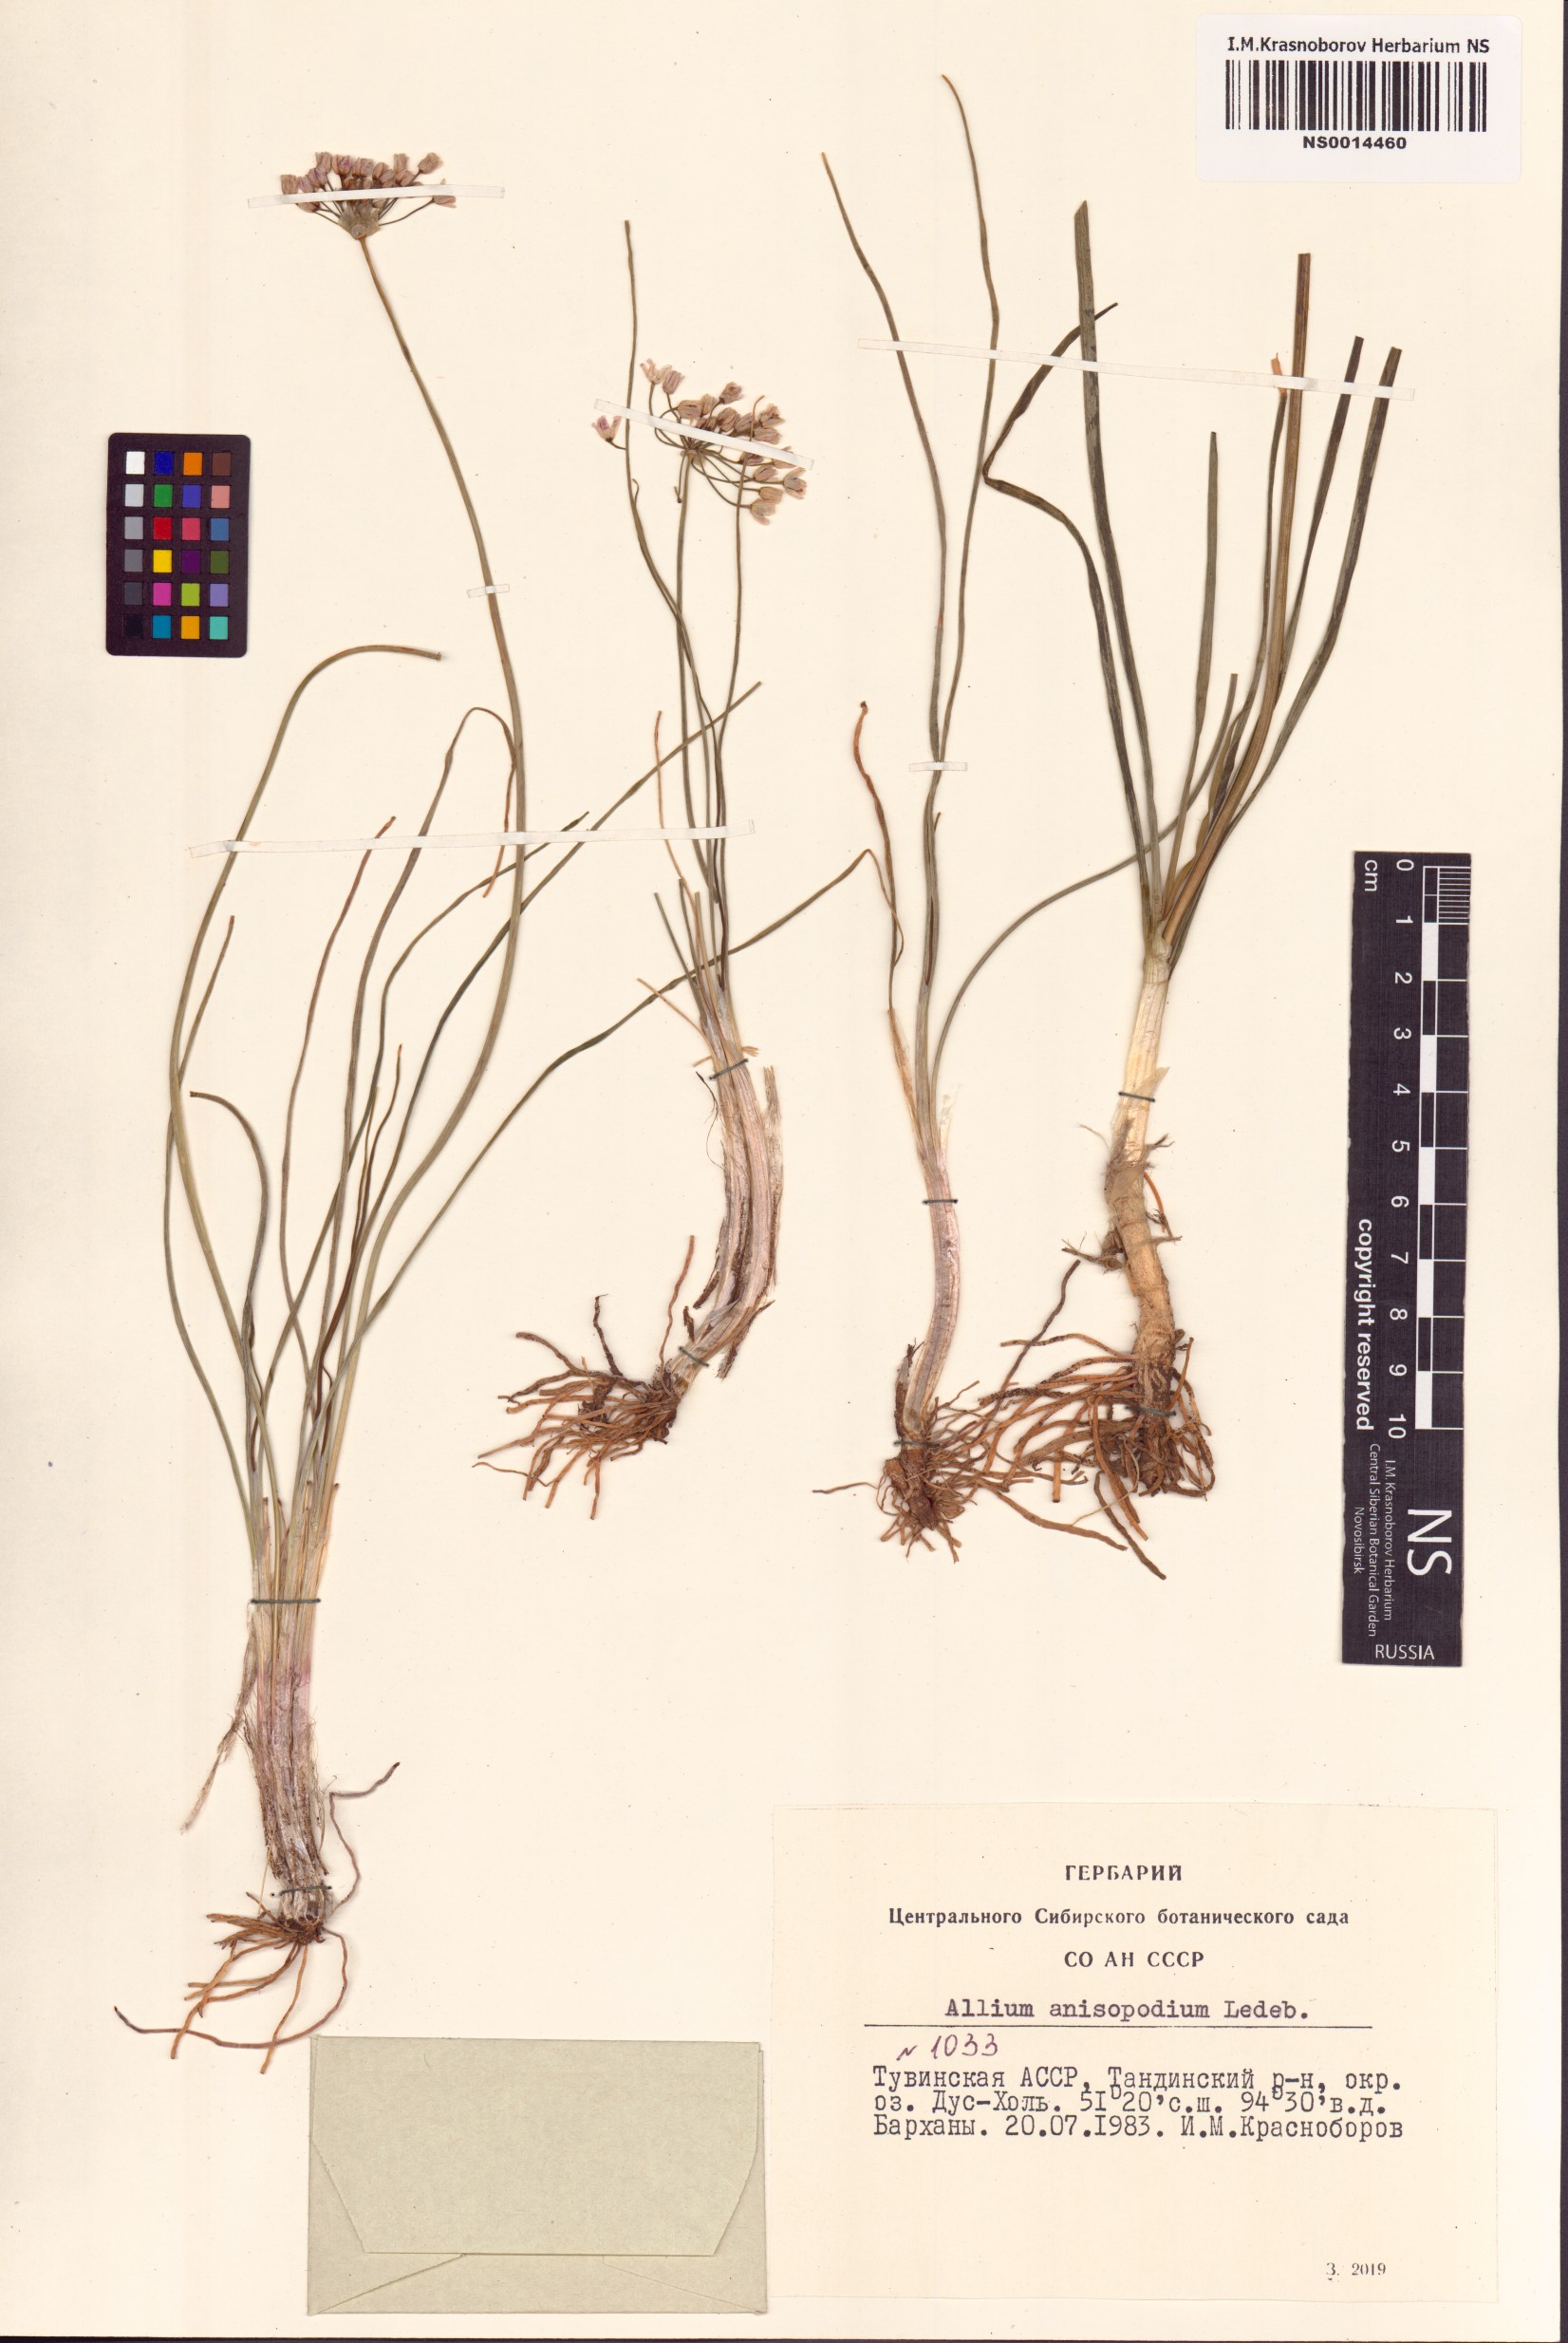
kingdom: Plantae
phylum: Tracheophyta
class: Liliopsida
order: Asparagales
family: Amaryllidaceae
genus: Allium
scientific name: Allium anisopodium
